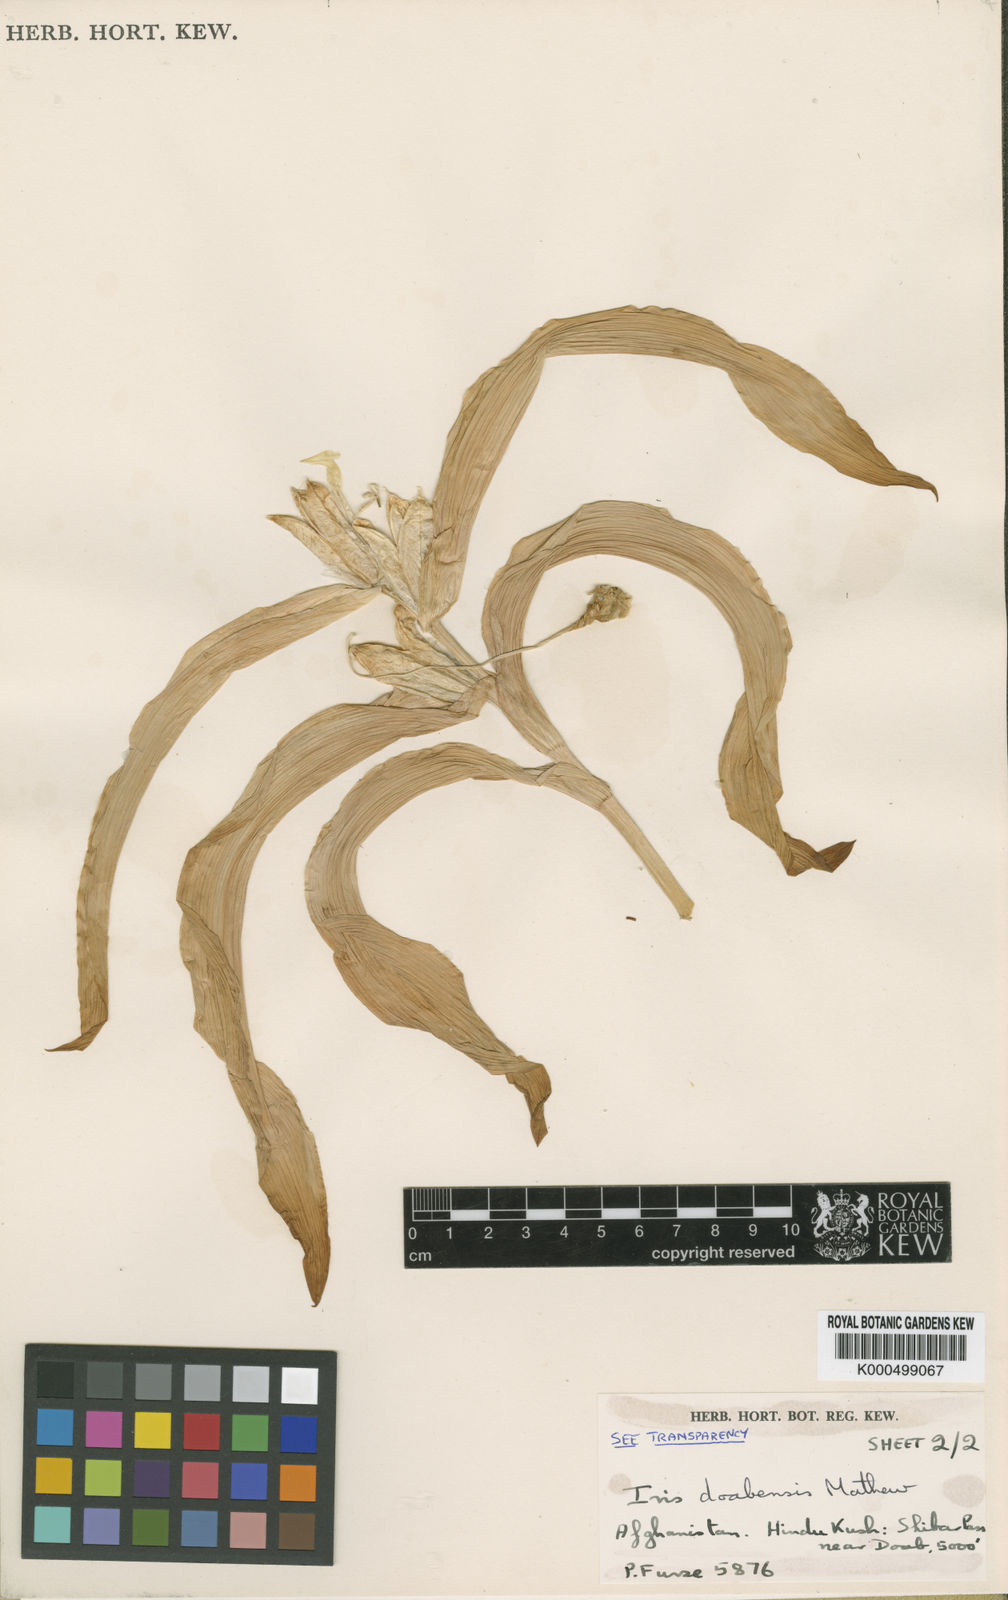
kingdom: Plantae
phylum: Tracheophyta
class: Liliopsida
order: Asparagales
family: Iridaceae
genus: Iris
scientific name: Iris doabensis
